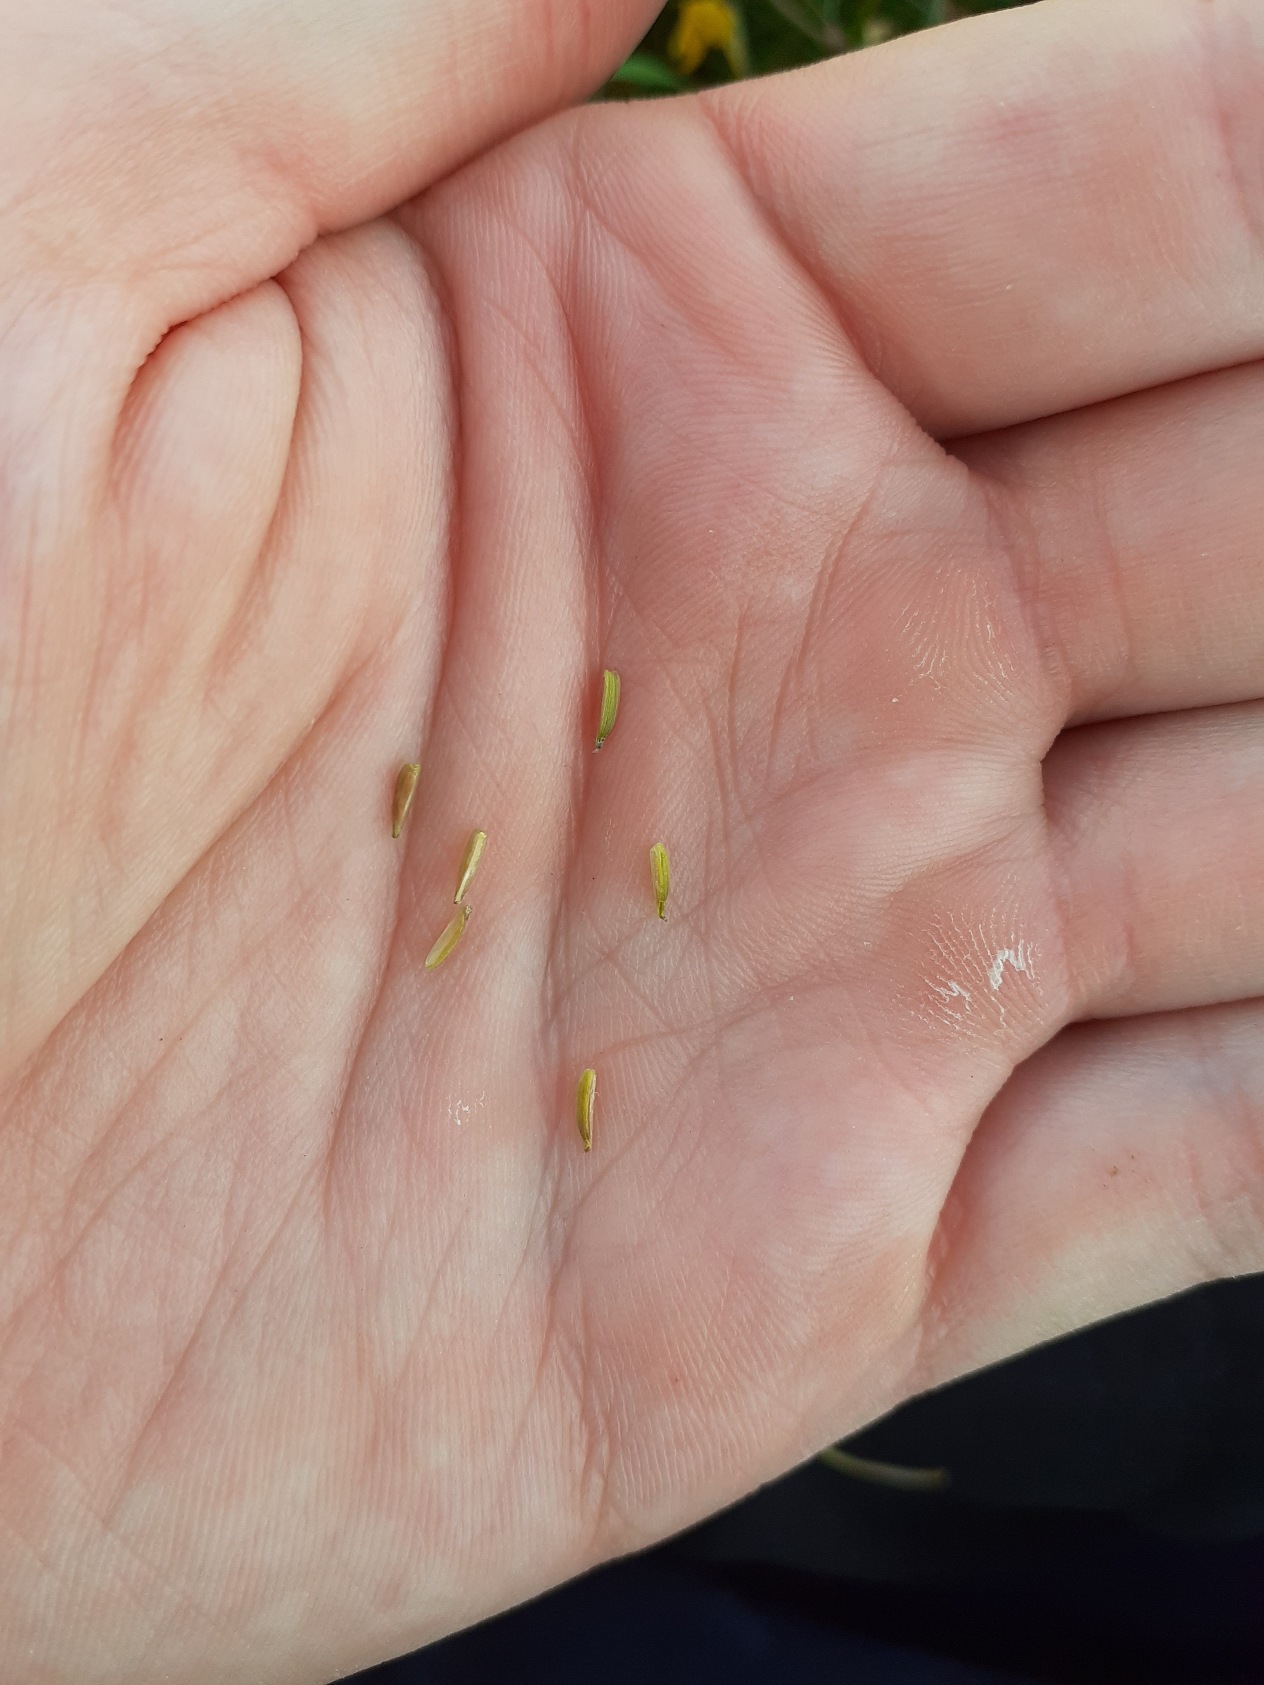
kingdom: Plantae
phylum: Tracheophyta
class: Liliopsida
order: Alismatales
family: Juncaginaceae
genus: Triglochin
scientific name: Triglochin maritima
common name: Strand-trehage
